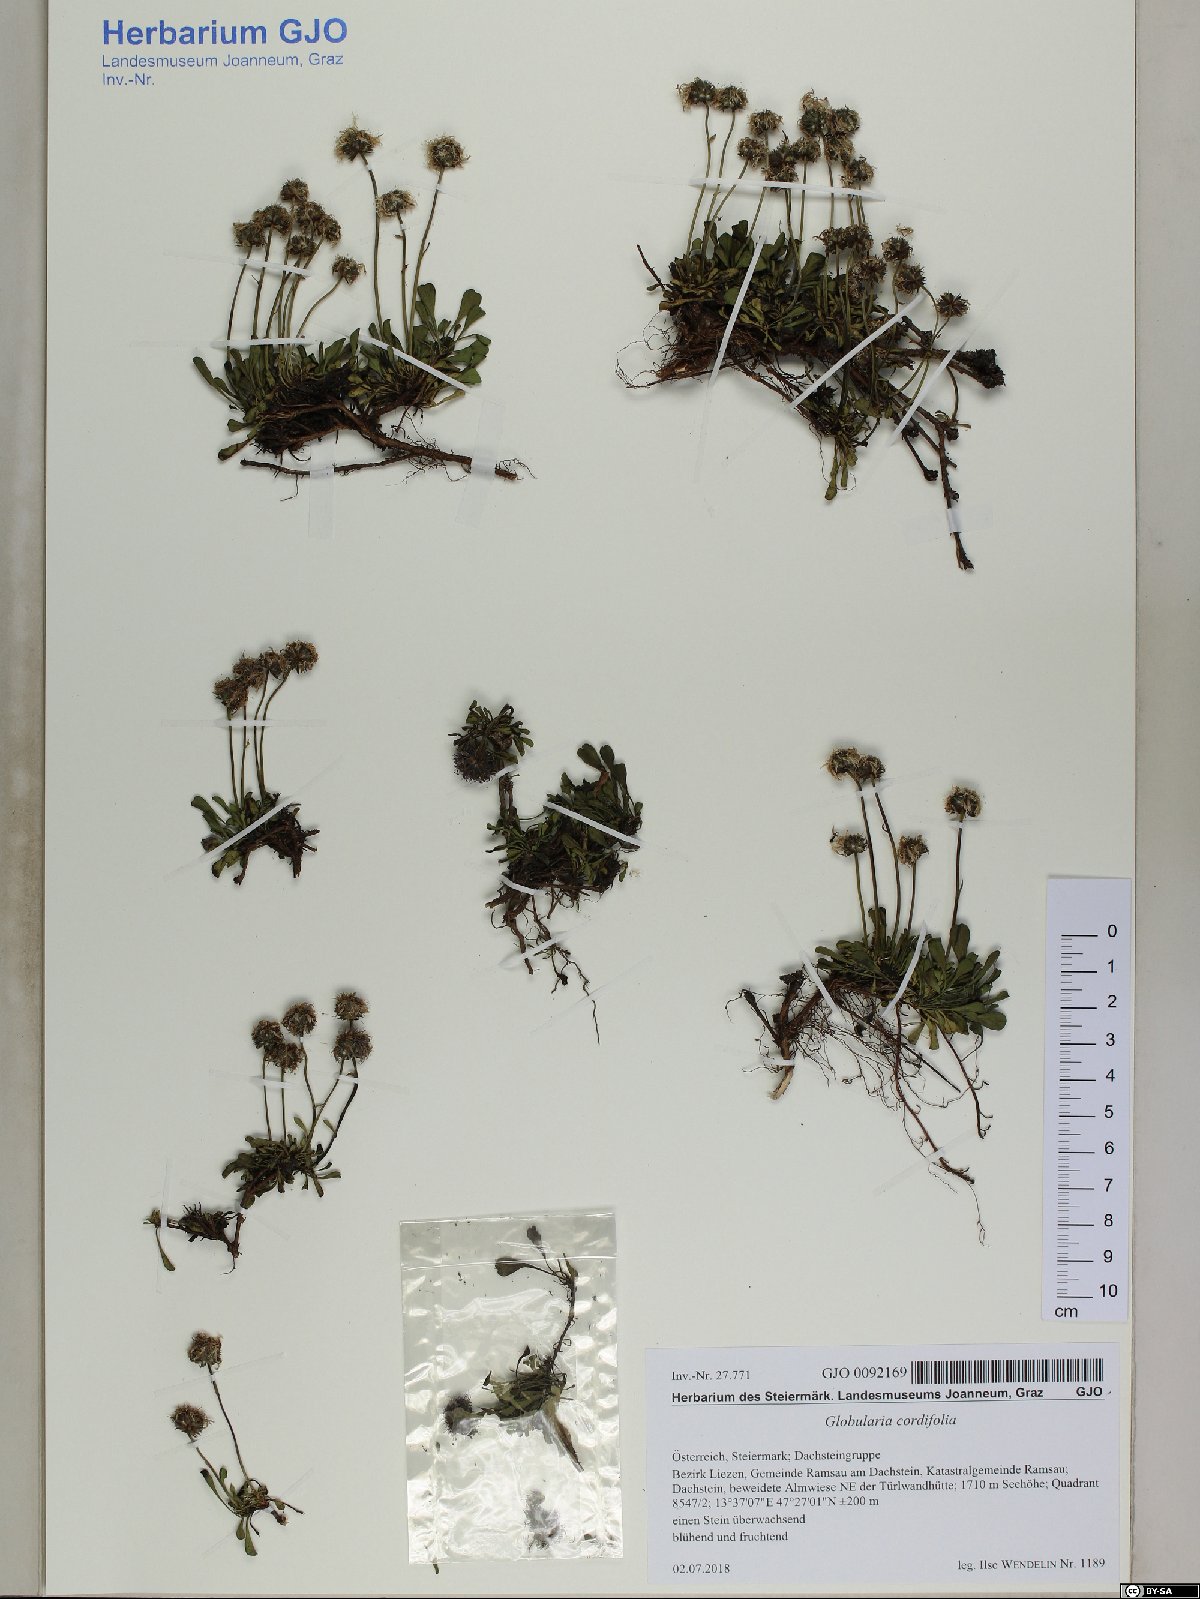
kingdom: Plantae
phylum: Tracheophyta
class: Magnoliopsida
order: Lamiales
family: Plantaginaceae
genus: Globularia
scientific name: Globularia cordifolia
